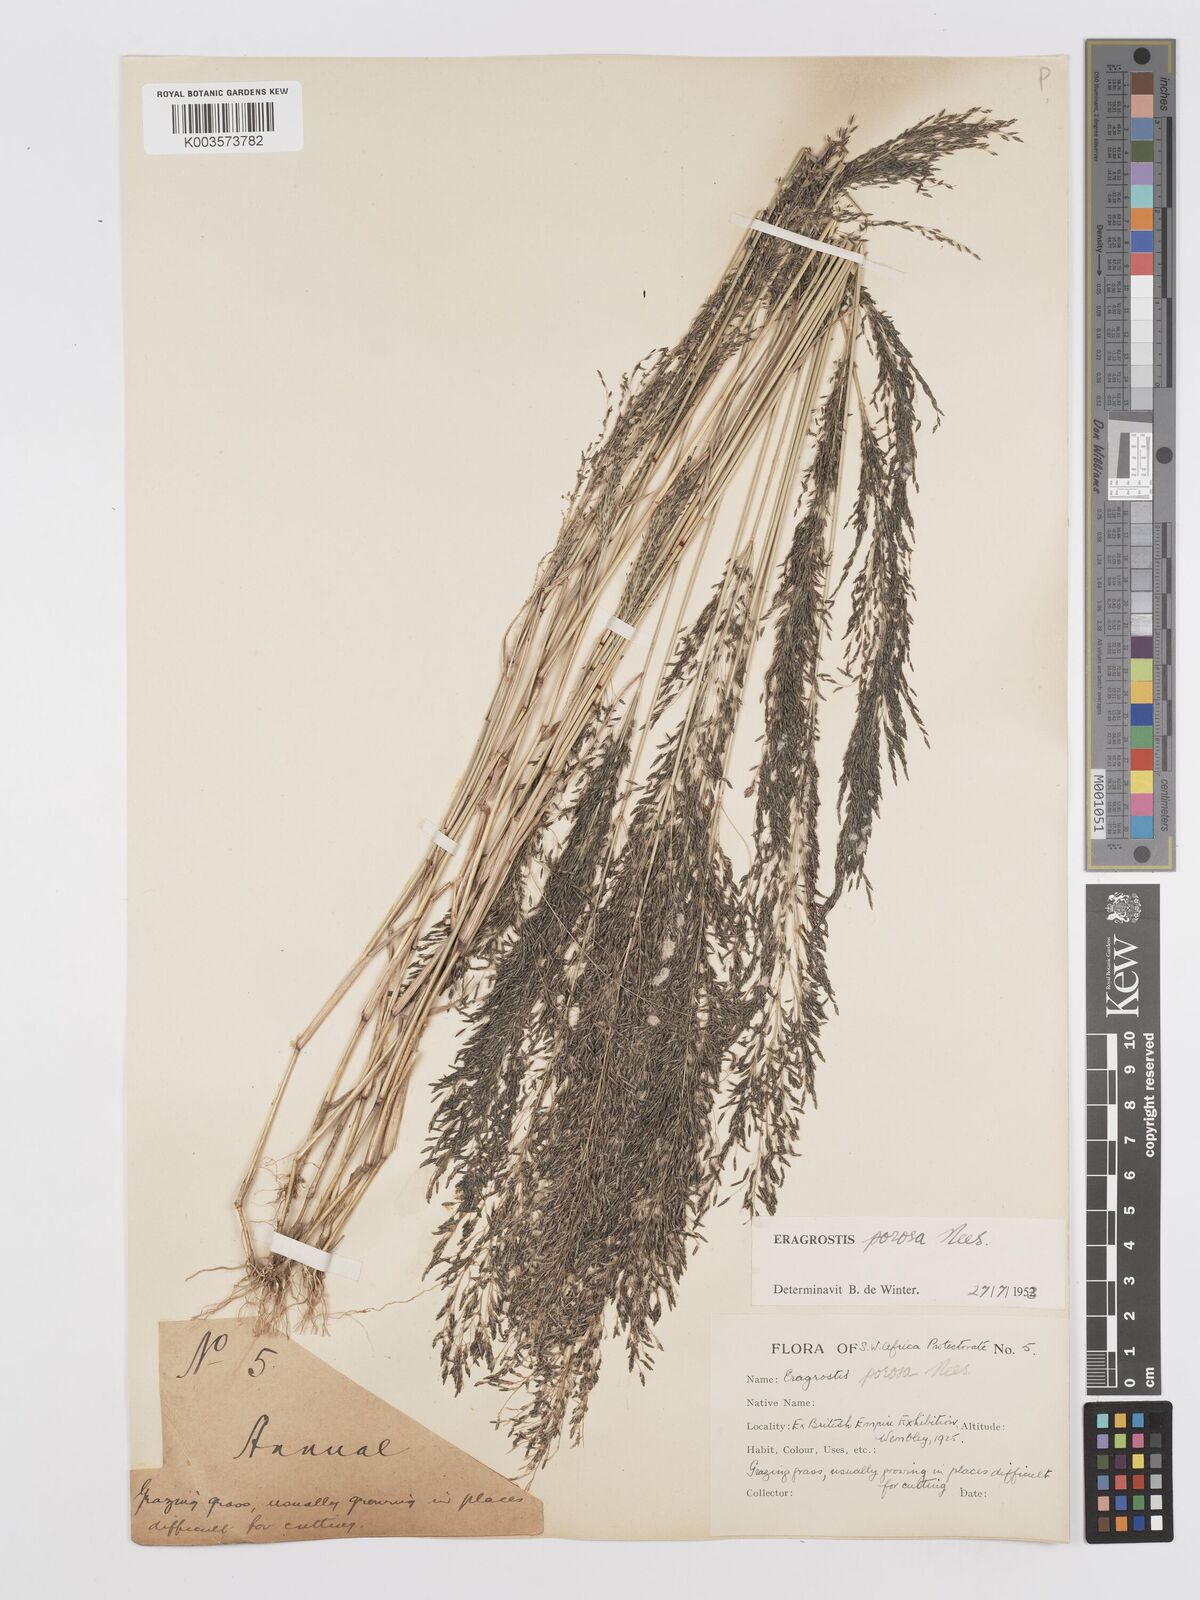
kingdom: Plantae
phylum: Tracheophyta
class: Liliopsida
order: Poales
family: Poaceae
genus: Eragrostis
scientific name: Eragrostis porosa
